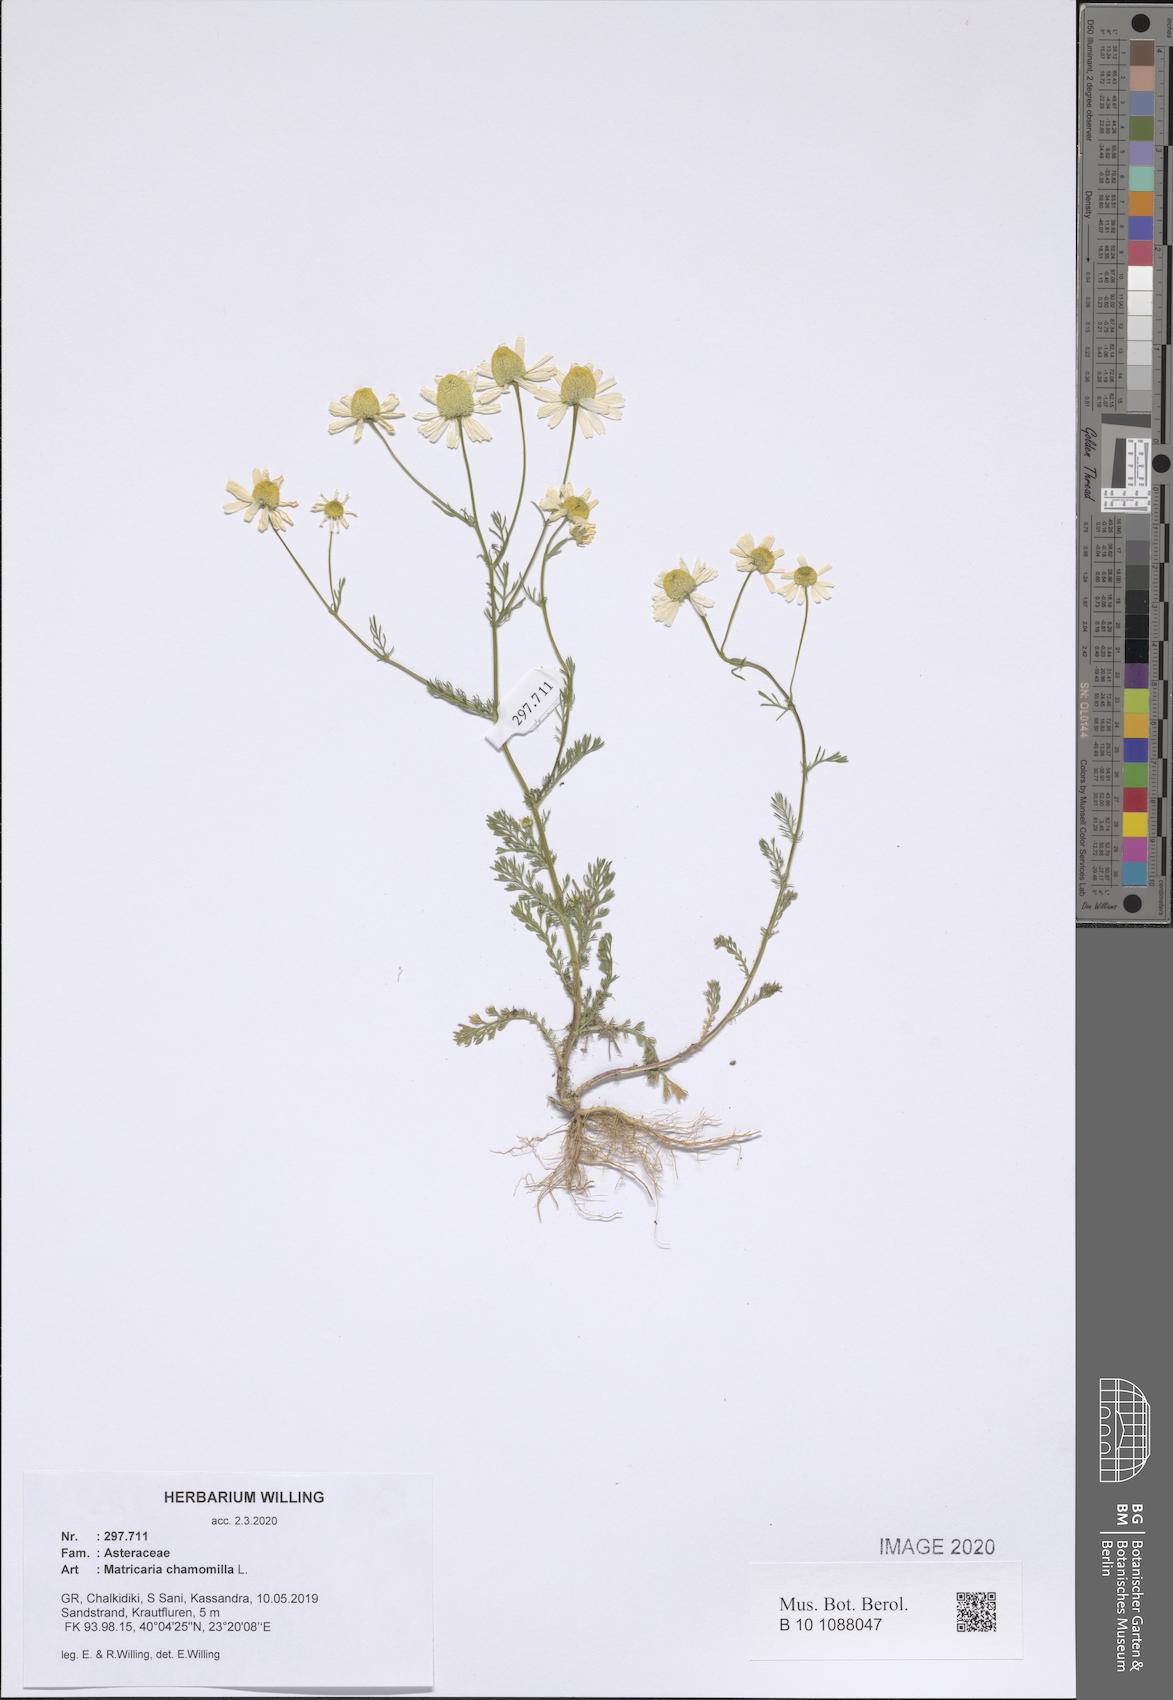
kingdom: Plantae
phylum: Tracheophyta
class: Magnoliopsida
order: Asterales
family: Asteraceae
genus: Matricaria
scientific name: Matricaria chamomilla
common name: Scented mayweed
